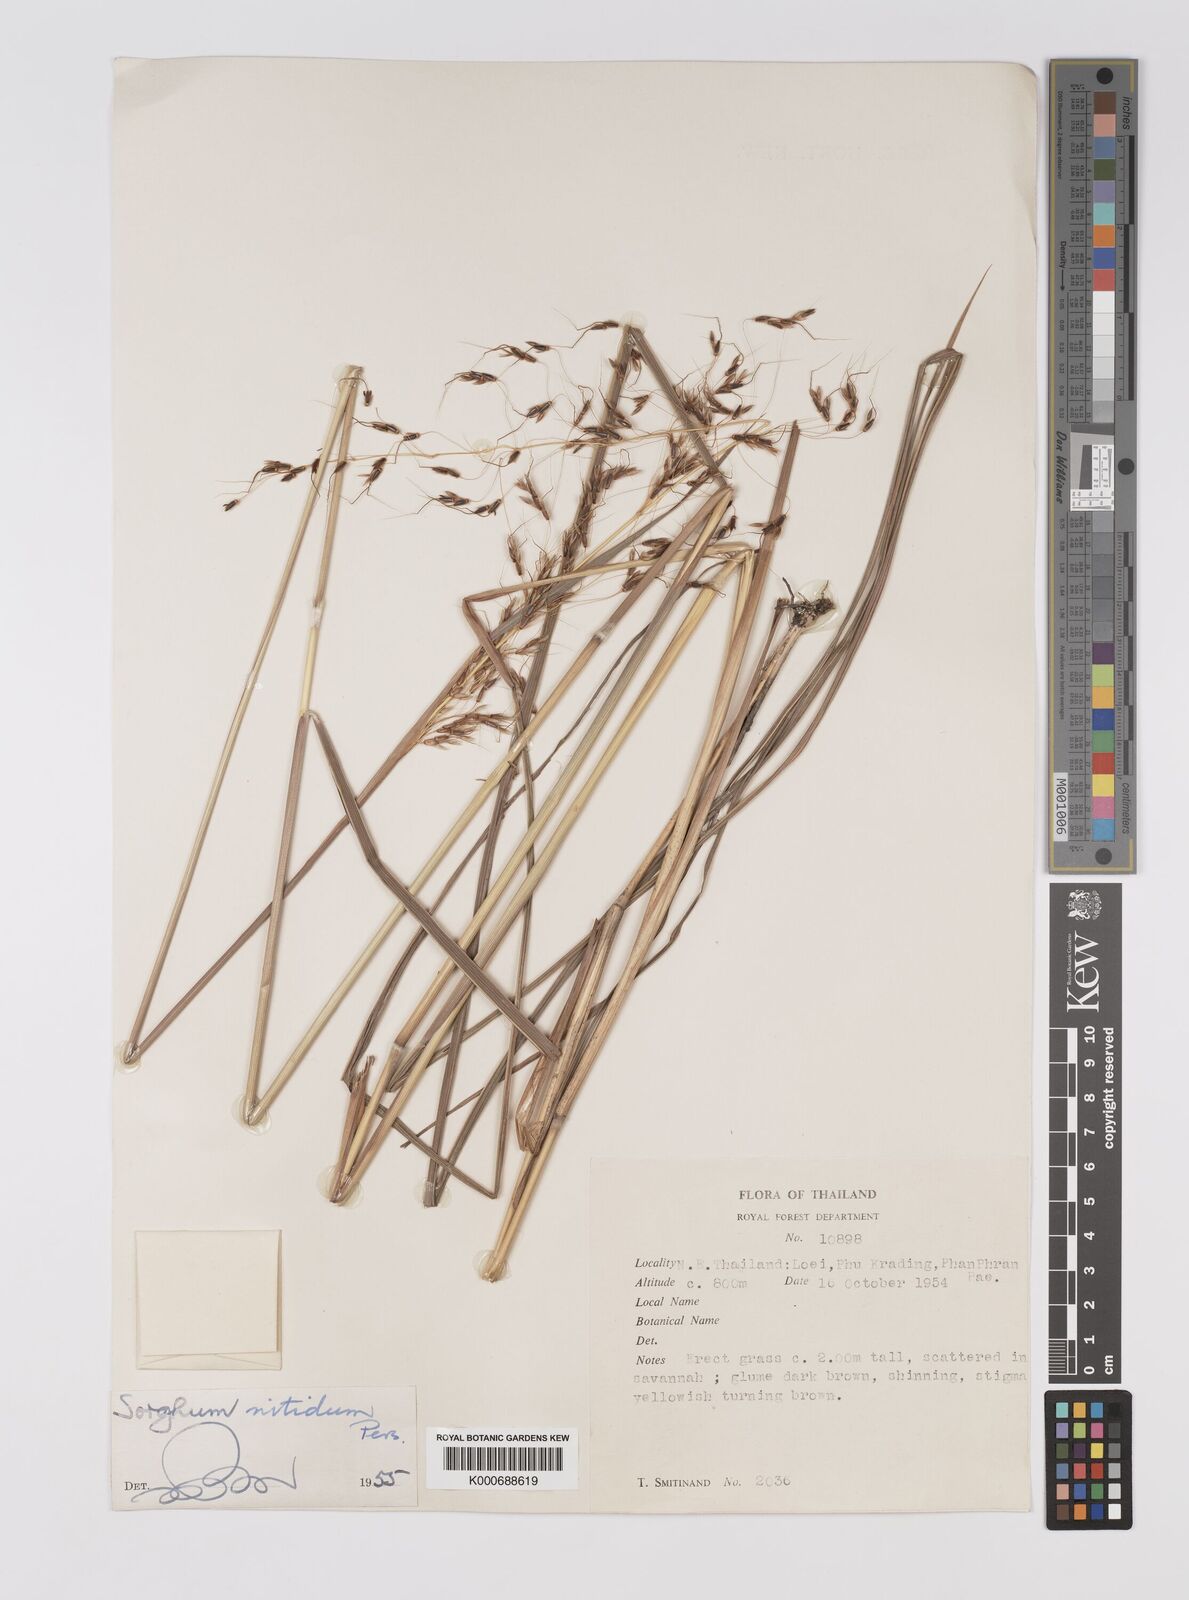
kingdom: Plantae
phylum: Tracheophyta
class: Liliopsida
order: Poales
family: Poaceae
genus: Sorghum
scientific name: Sorghum nitidum
